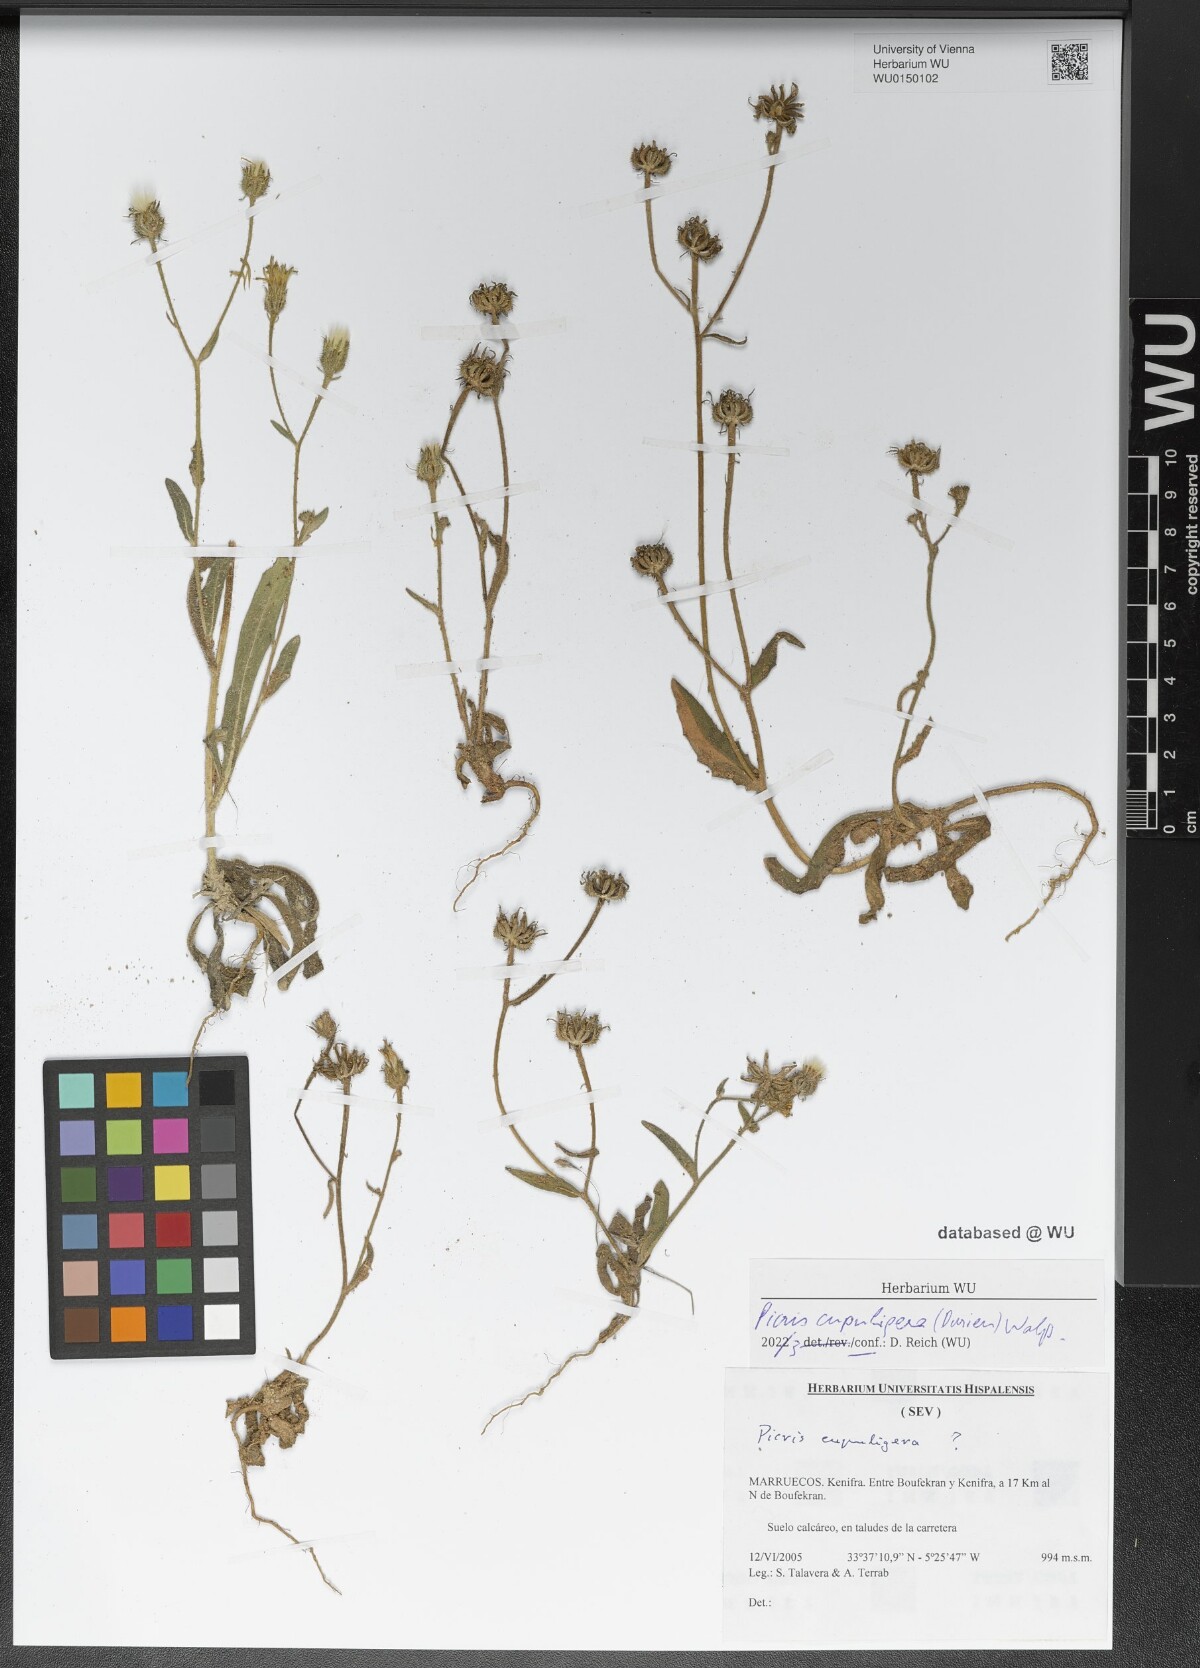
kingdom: Plantae
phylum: Tracheophyta
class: Magnoliopsida
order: Asterales
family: Asteraceae
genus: Picris
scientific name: Picris cupuligera
